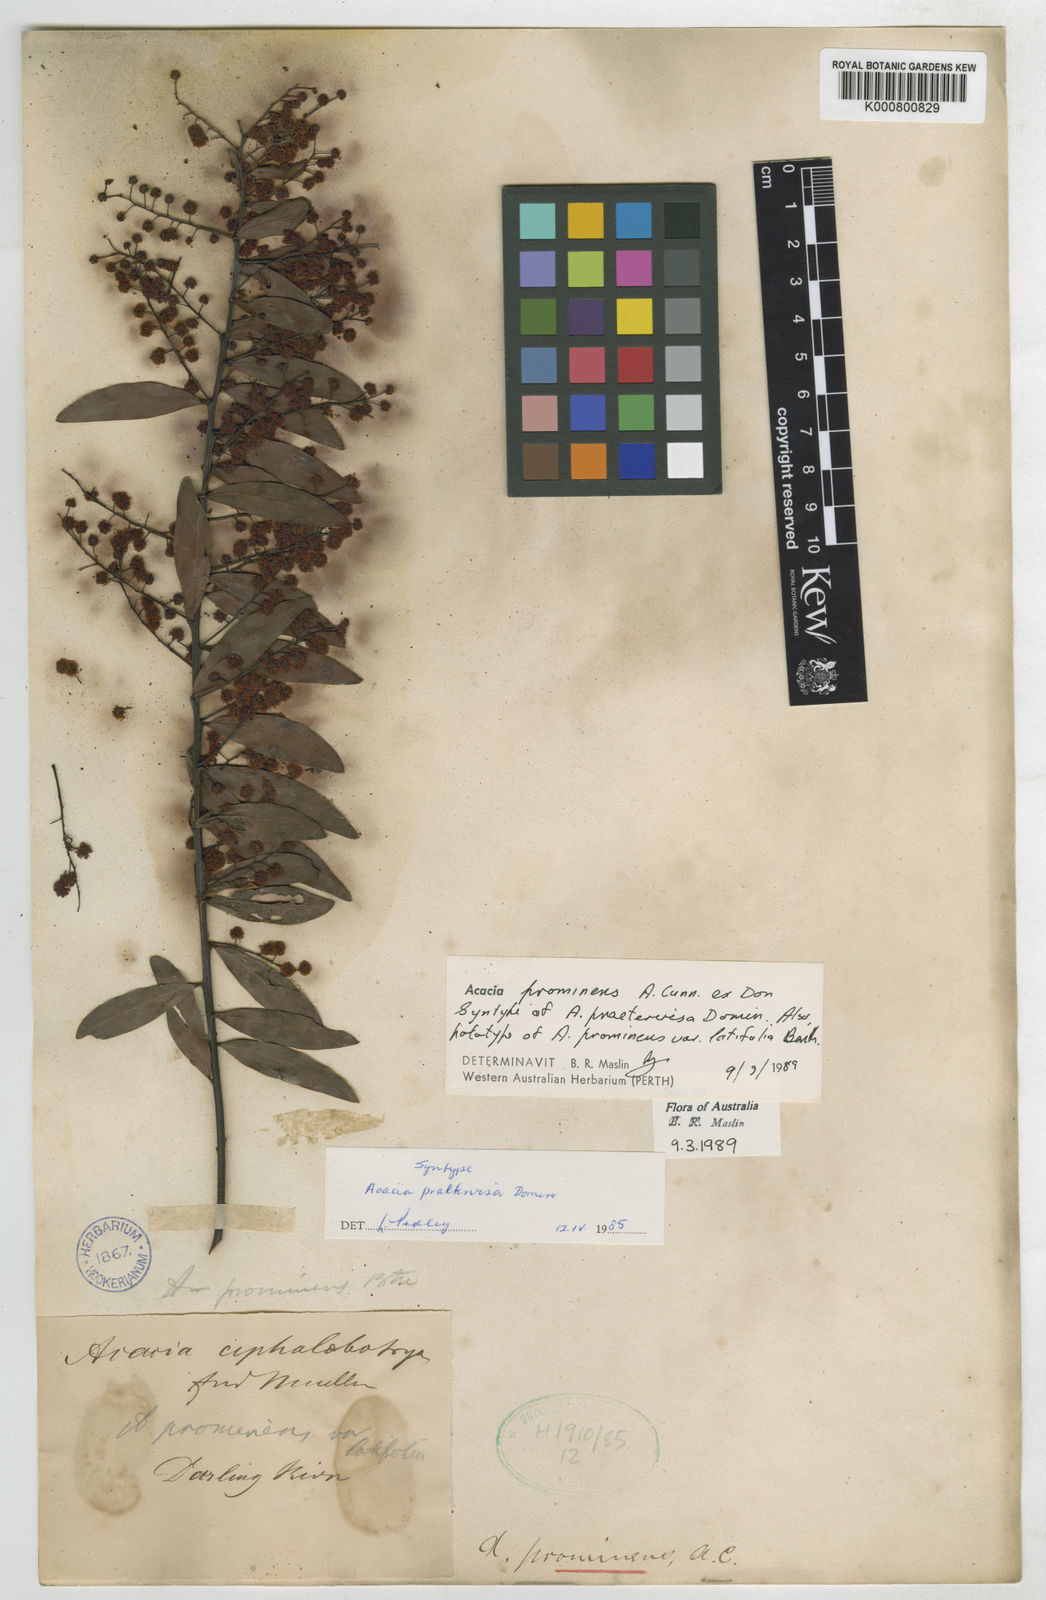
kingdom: Plantae
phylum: Tracheophyta
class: Magnoliopsida
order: Fabales
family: Fabaceae
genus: Acacia
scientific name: Acacia prominens
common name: Gosford wattle
